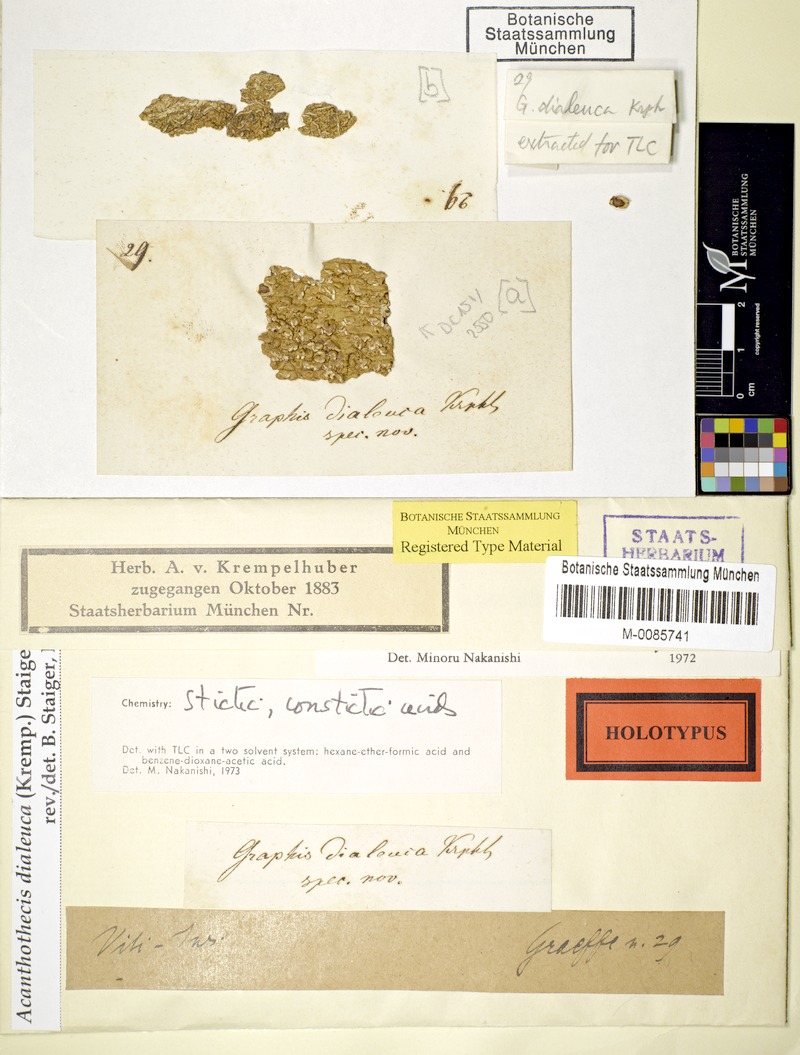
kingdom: Fungi
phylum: Ascomycota
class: Lecanoromycetes
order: Ostropales
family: Graphidaceae
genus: Acanthothecis
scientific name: Acanthothecis dialeuca
